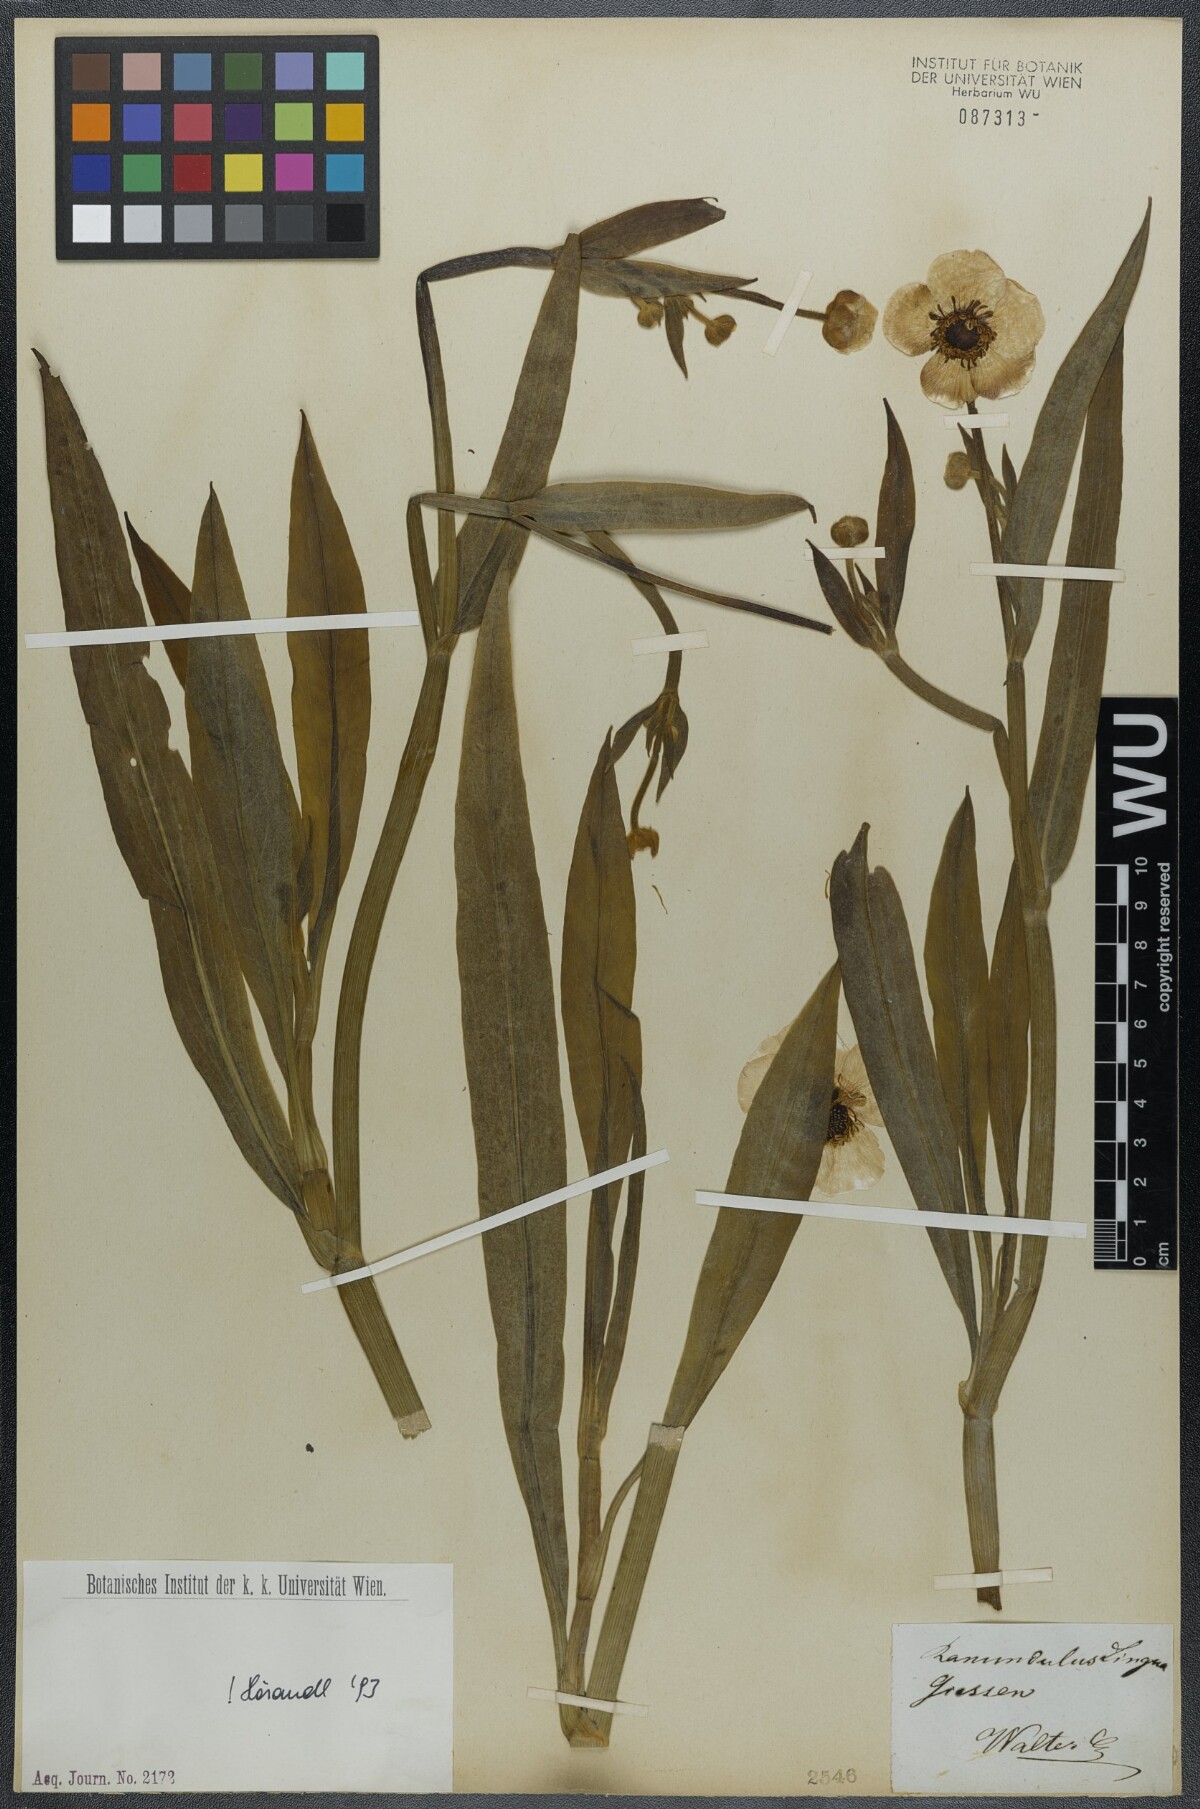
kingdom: Plantae
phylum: Tracheophyta
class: Magnoliopsida
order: Ranunculales
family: Ranunculaceae
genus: Ranunculus
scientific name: Ranunculus lingua
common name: Greater spearwort
